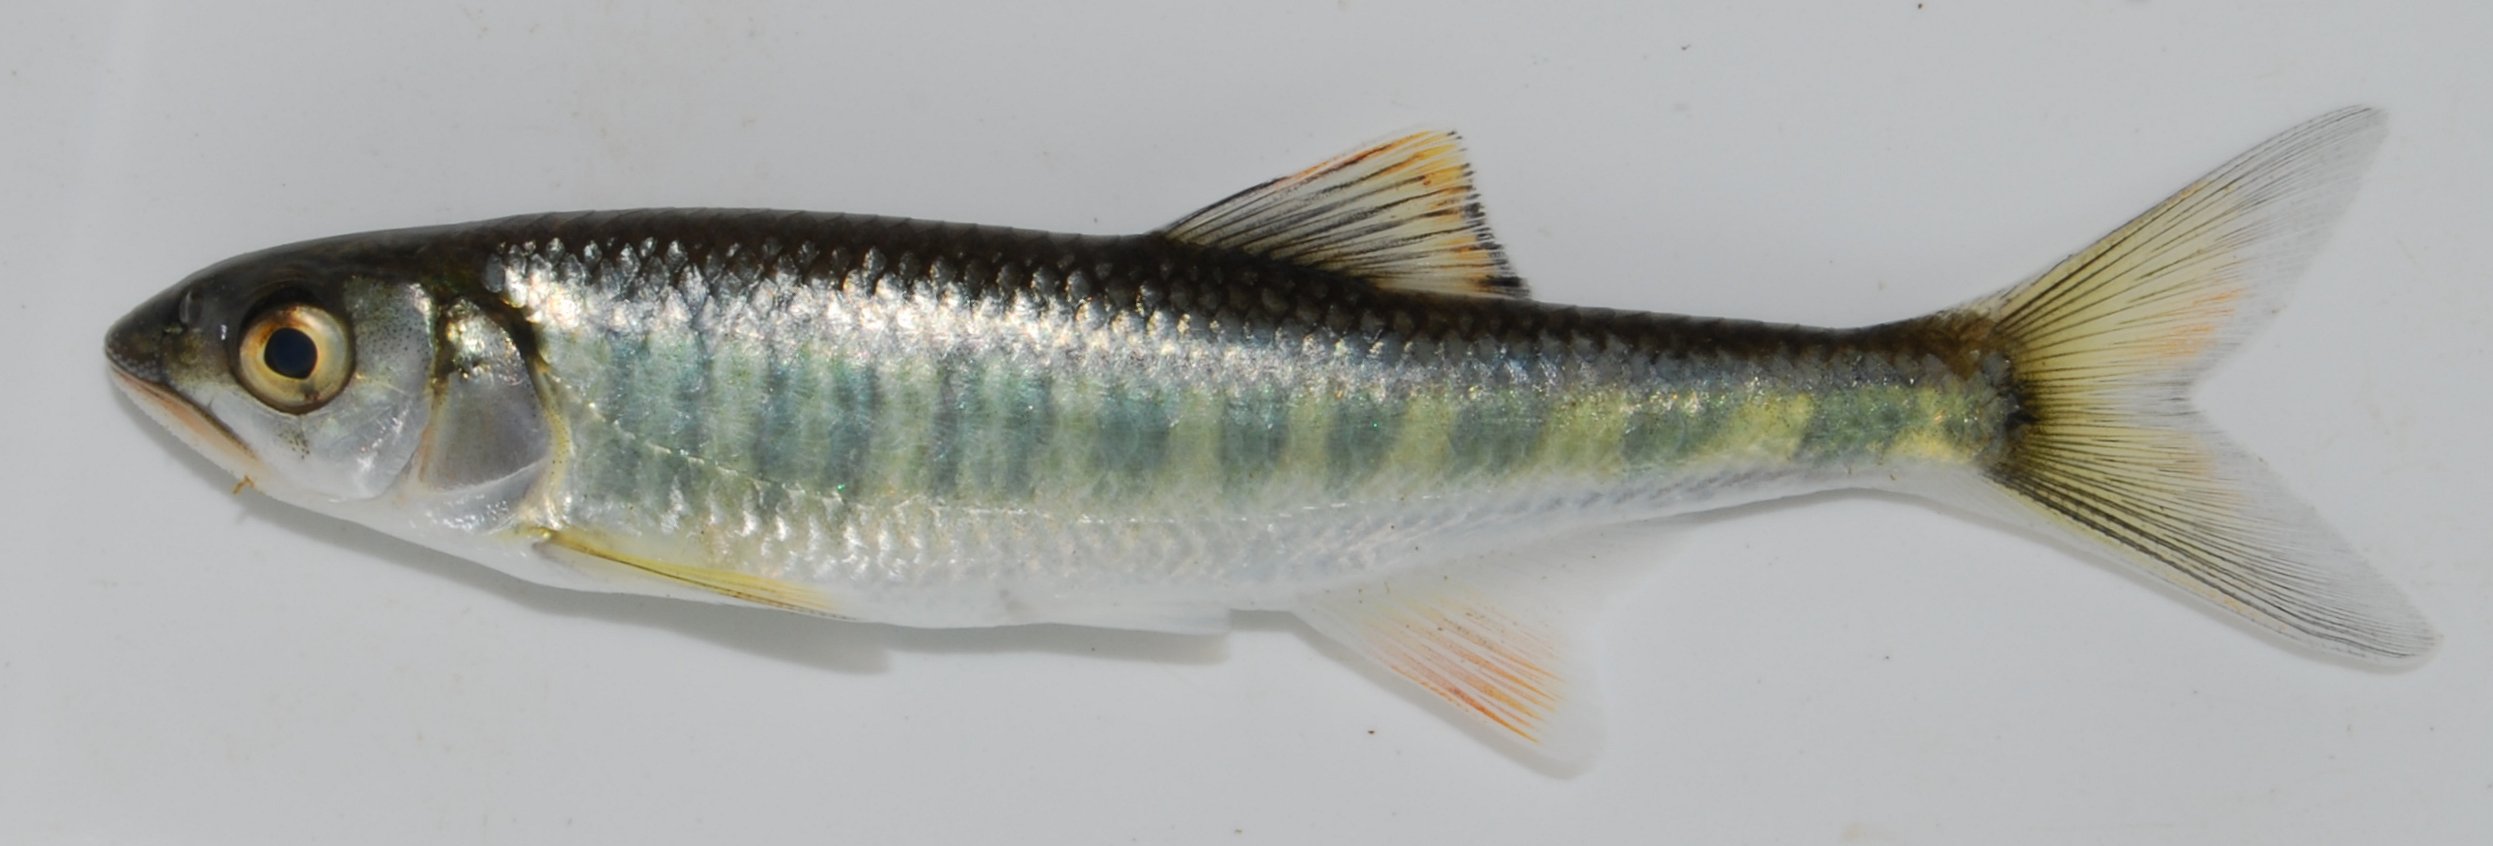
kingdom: Animalia
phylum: Chordata
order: Cypriniformes
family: Cyprinidae
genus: Opsaridium
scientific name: Opsaridium zambezense
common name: Barred minnow
